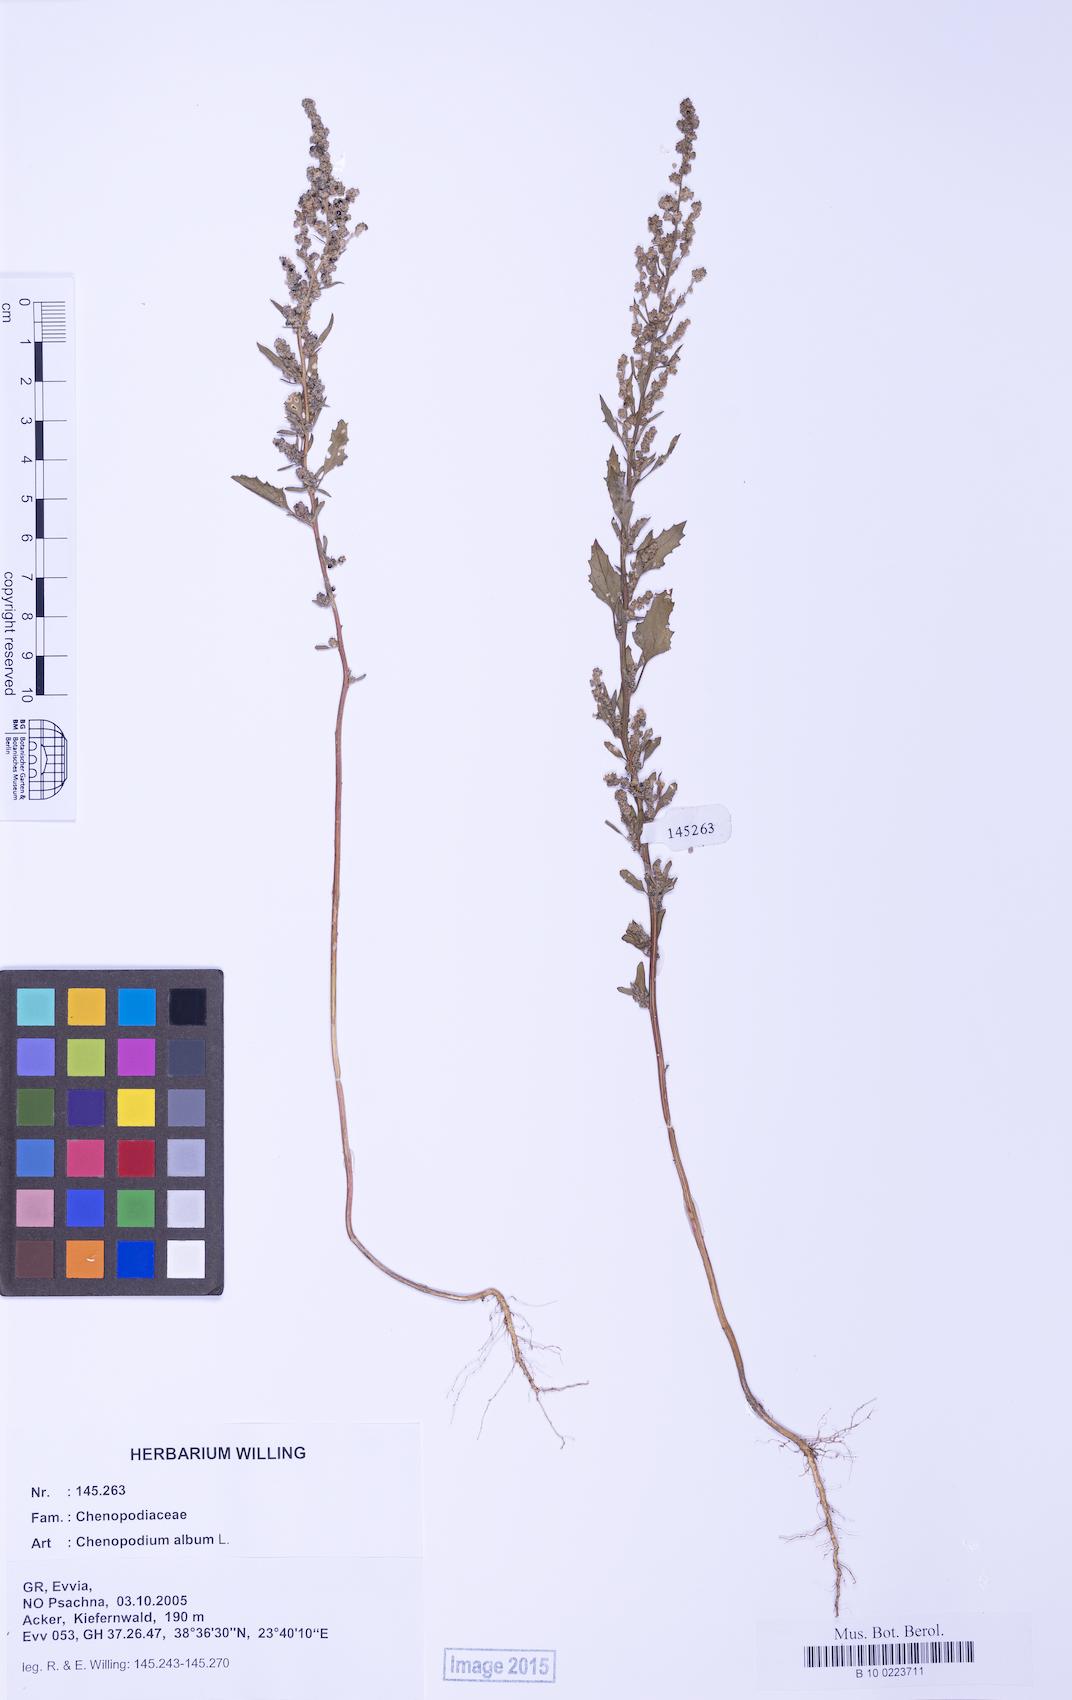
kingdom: Plantae
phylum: Tracheophyta
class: Magnoliopsida
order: Caryophyllales
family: Amaranthaceae
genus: Chenopodium
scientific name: Chenopodium album
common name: Fat-hen
